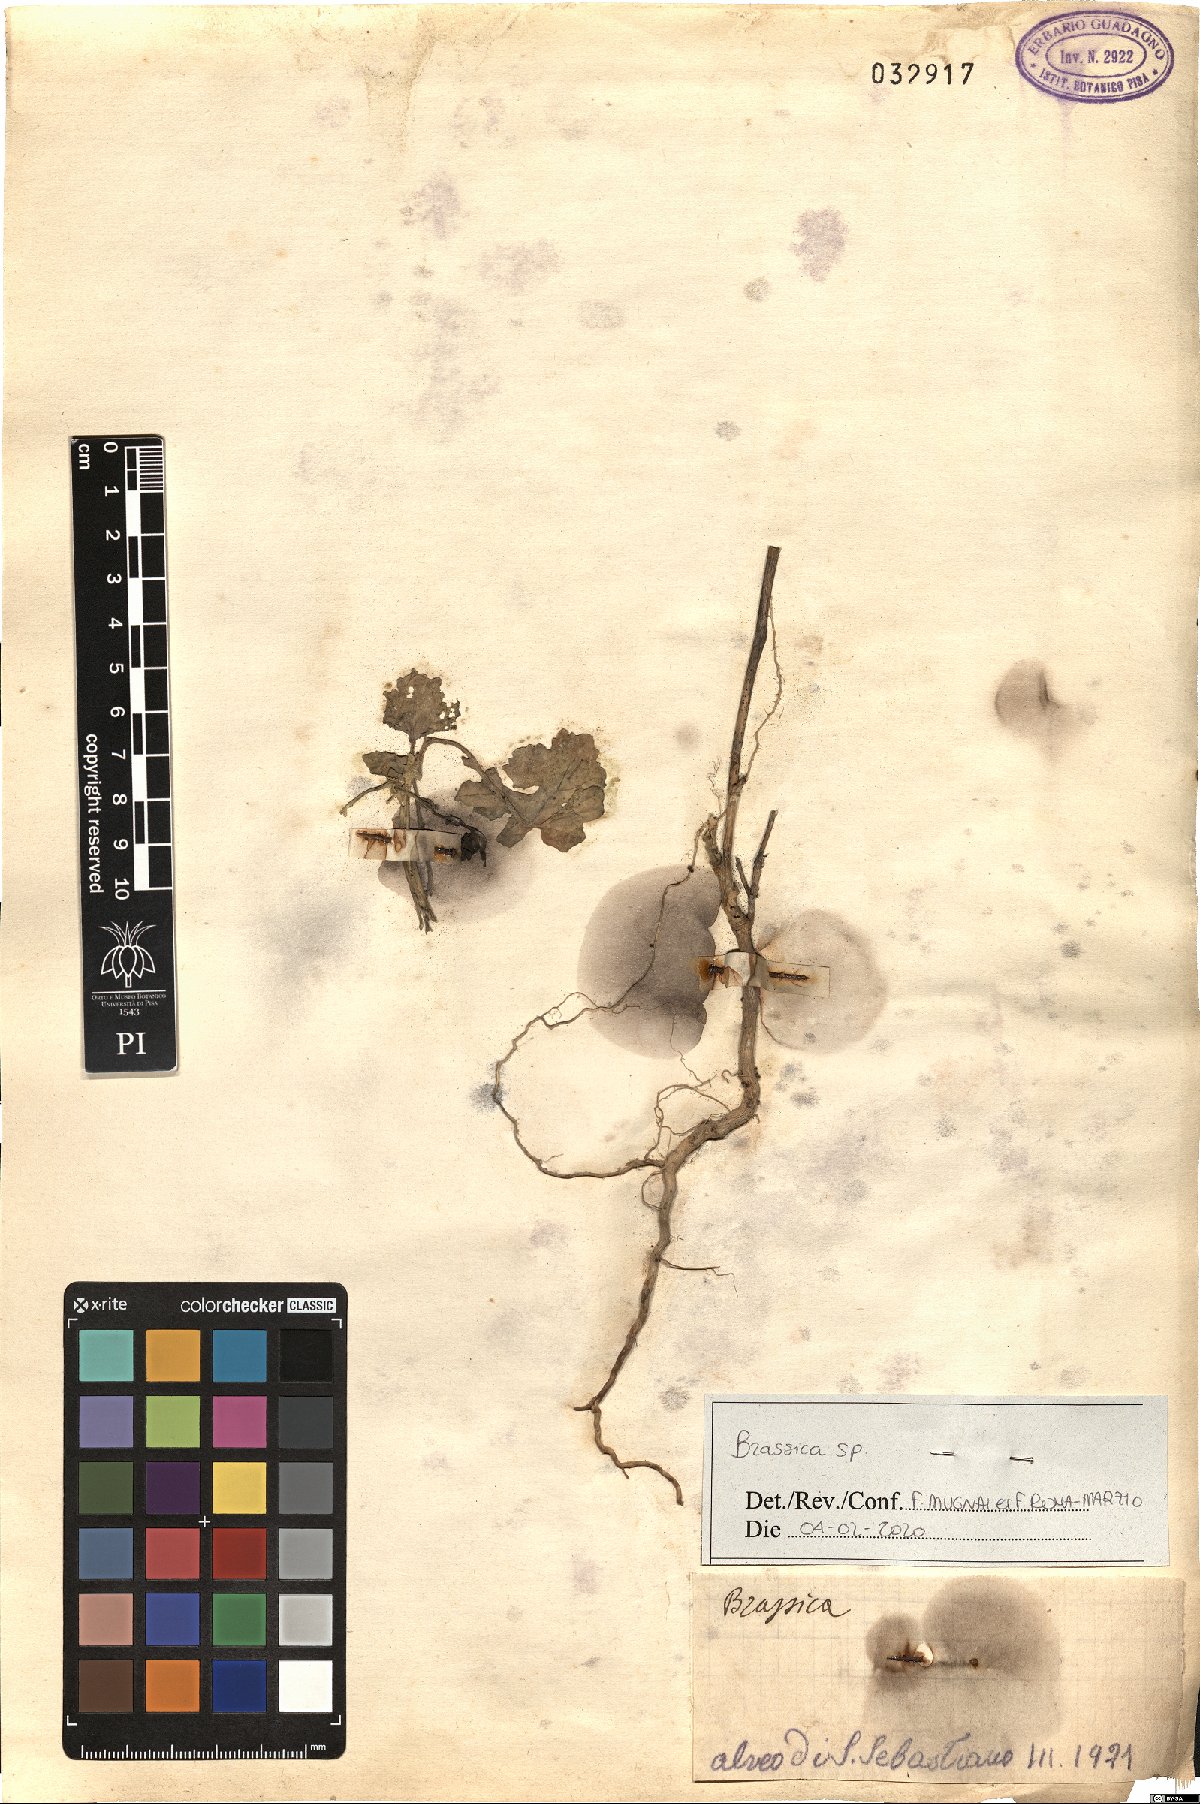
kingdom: Plantae
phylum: Tracheophyta
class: Magnoliopsida
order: Brassicales
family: Brassicaceae
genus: Brassica
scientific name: Brassica
